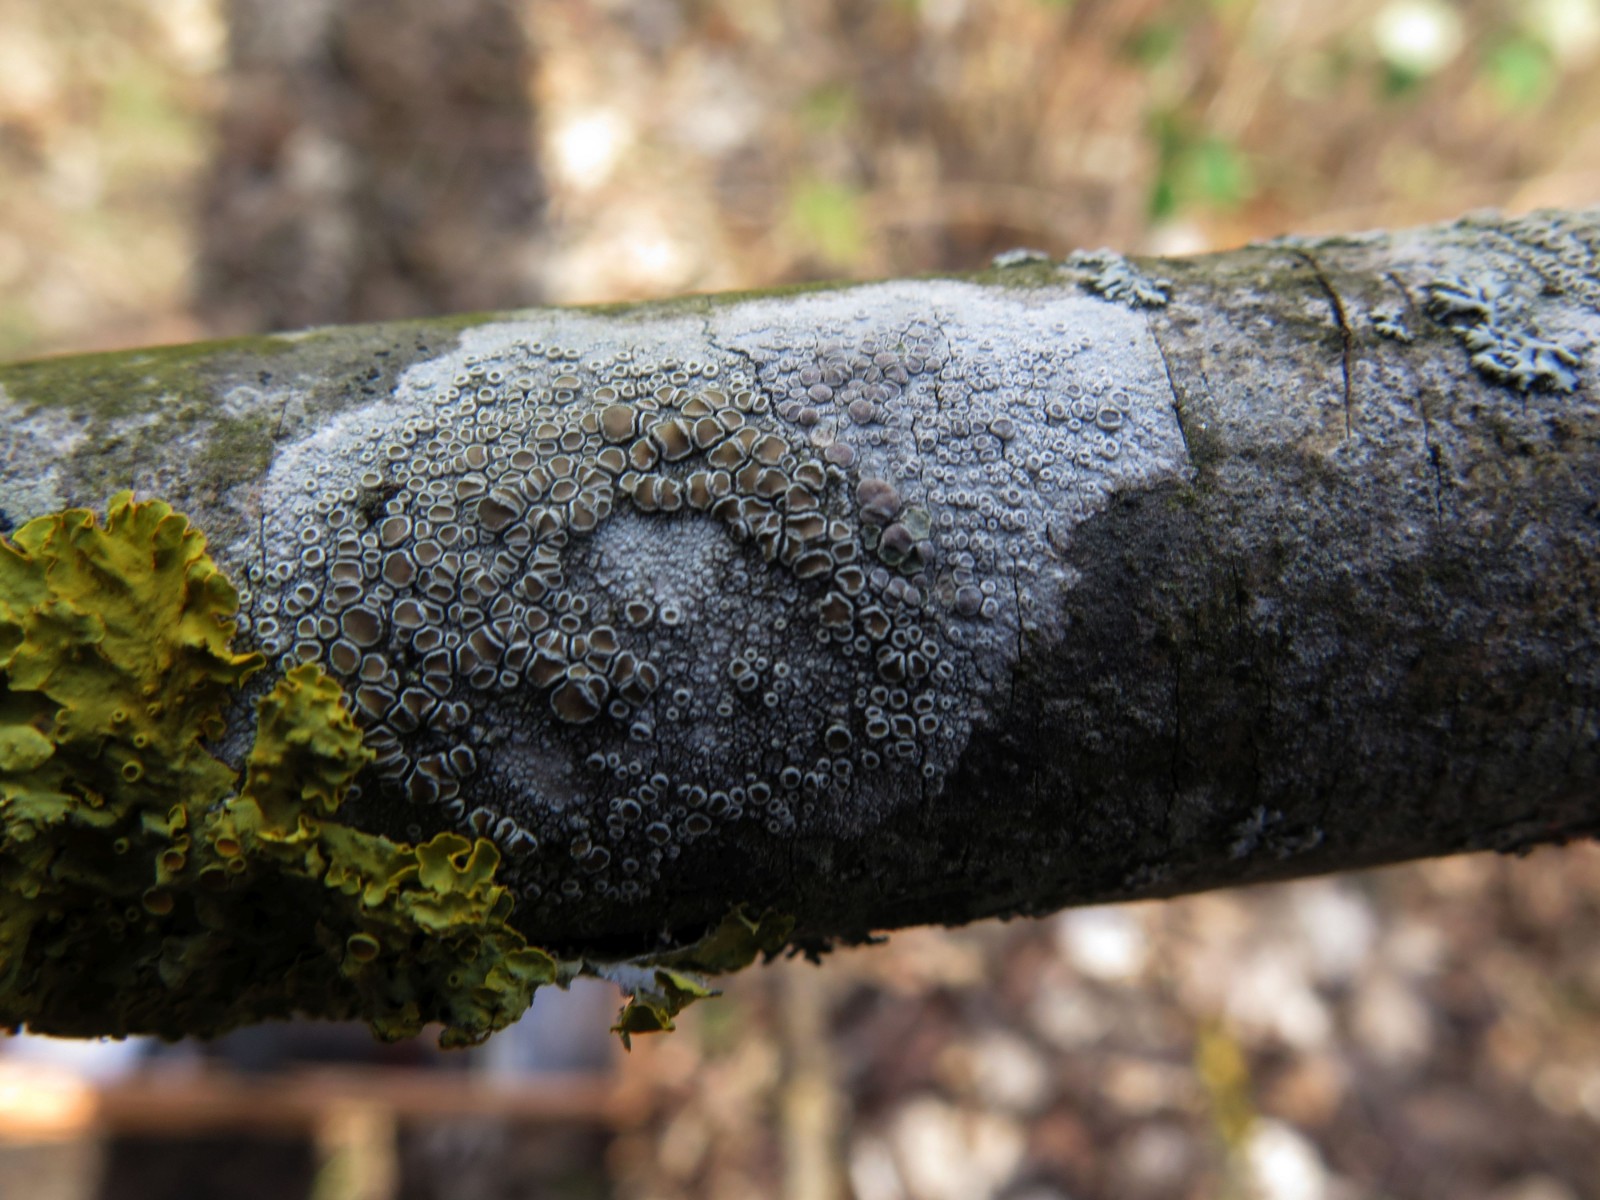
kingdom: Fungi
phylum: Ascomycota
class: Lecanoromycetes
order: Lecanorales
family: Lecanoraceae
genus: Lecanora
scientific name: Lecanora chlarotera
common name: brun kantskivelav
